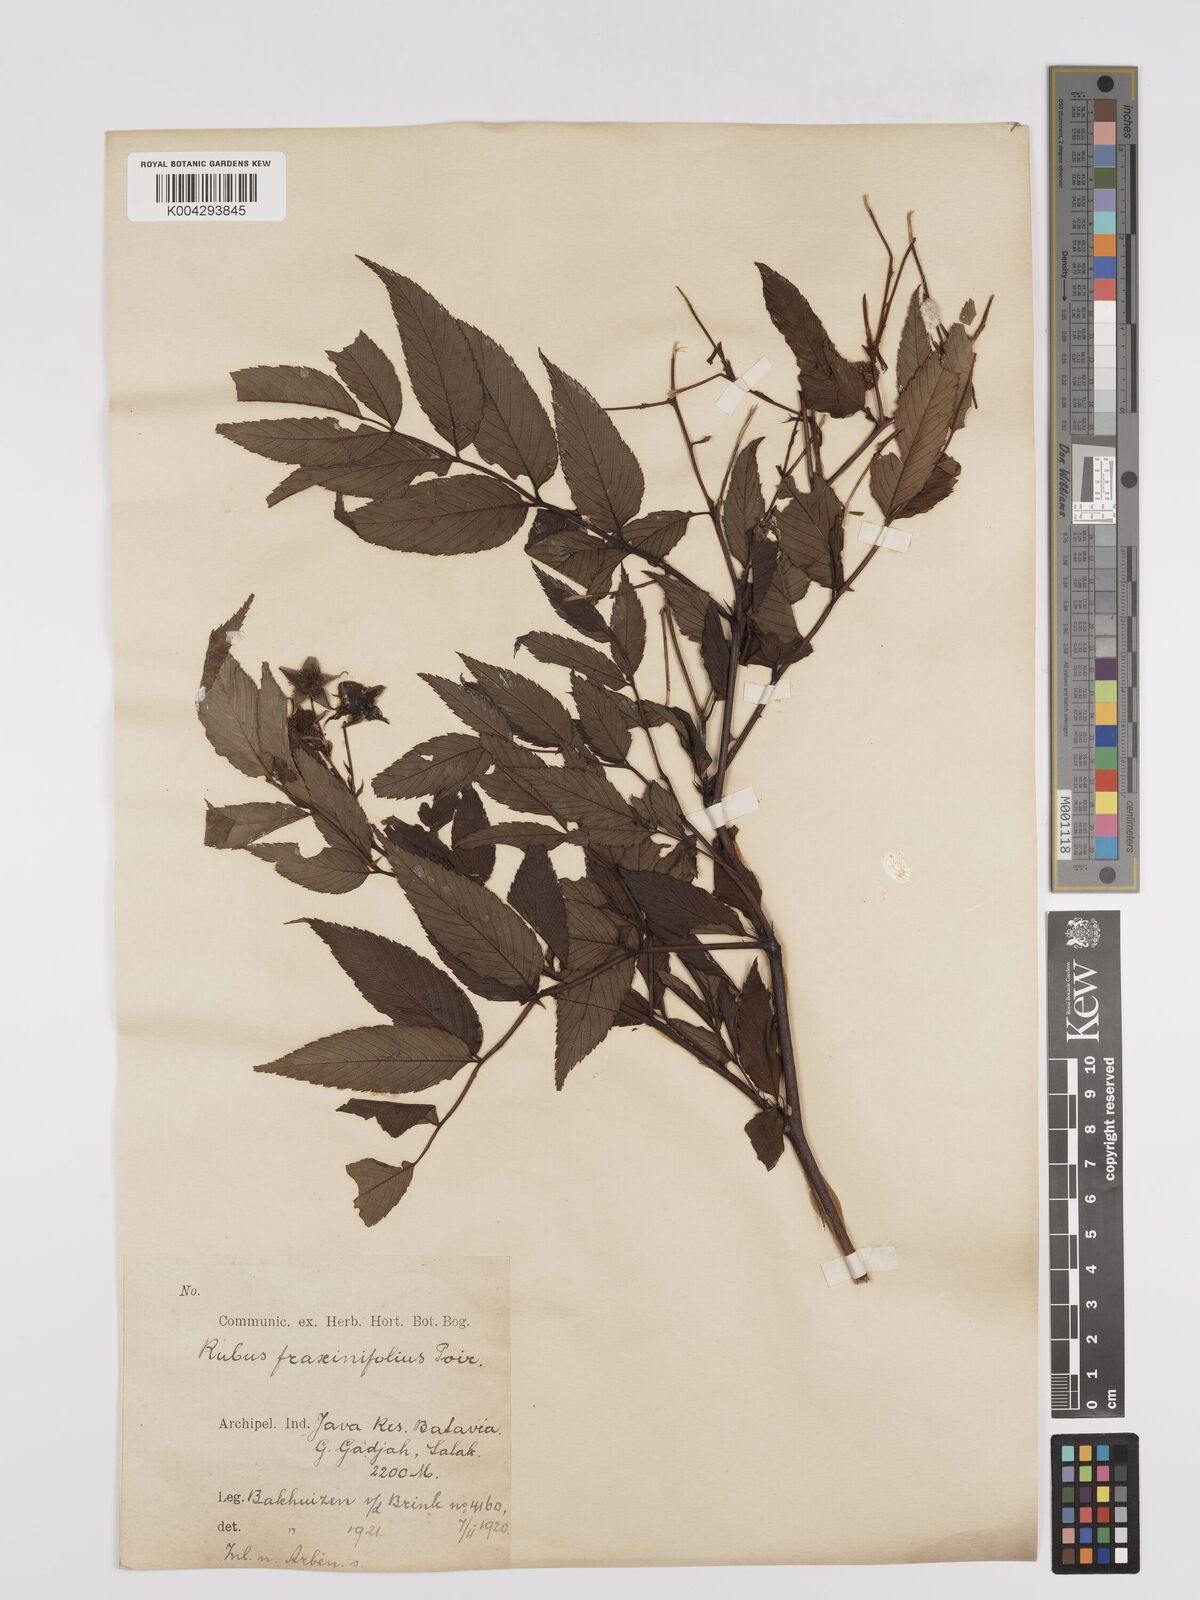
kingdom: Plantae
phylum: Tracheophyta
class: Magnoliopsida
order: Rosales
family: Rosaceae
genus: Rubus
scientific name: Rubus fraxinifolius
